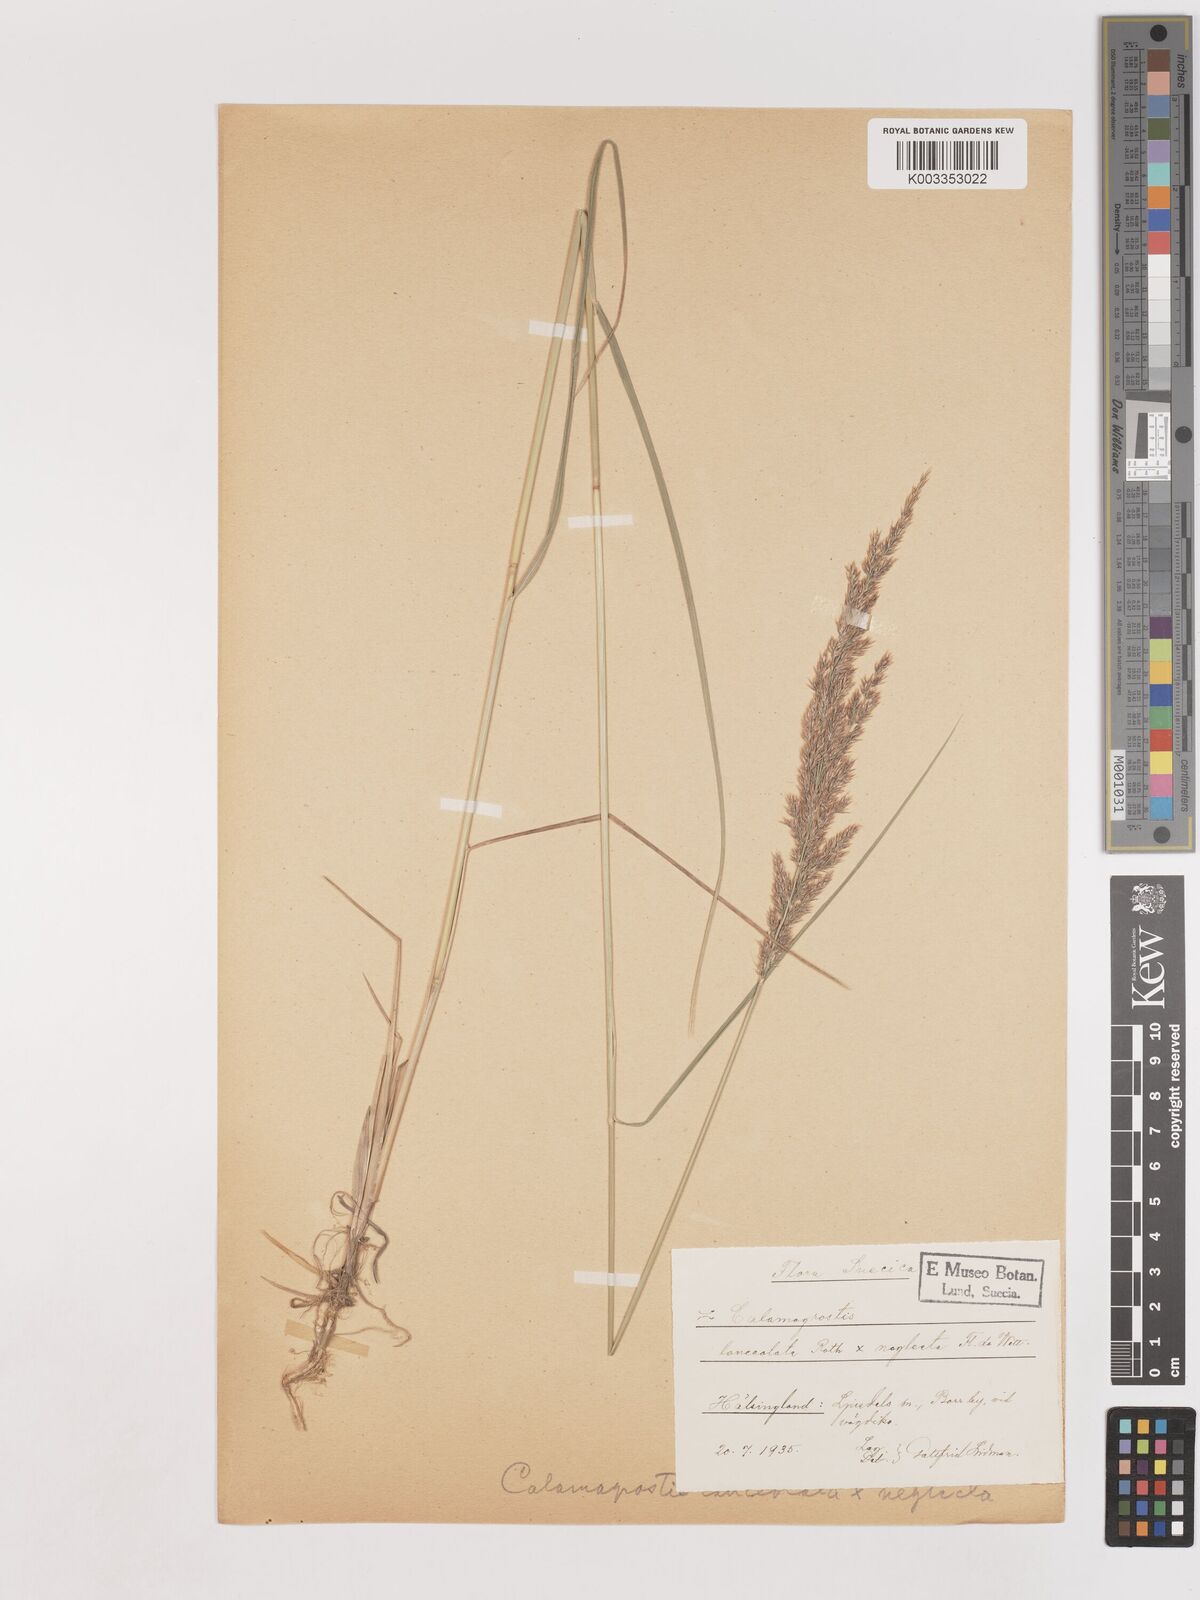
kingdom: Plantae
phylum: Tracheophyta
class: Liliopsida
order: Poales
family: Poaceae
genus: Calamagrostis
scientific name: Calamagrostis canescens
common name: Purple small-reed
